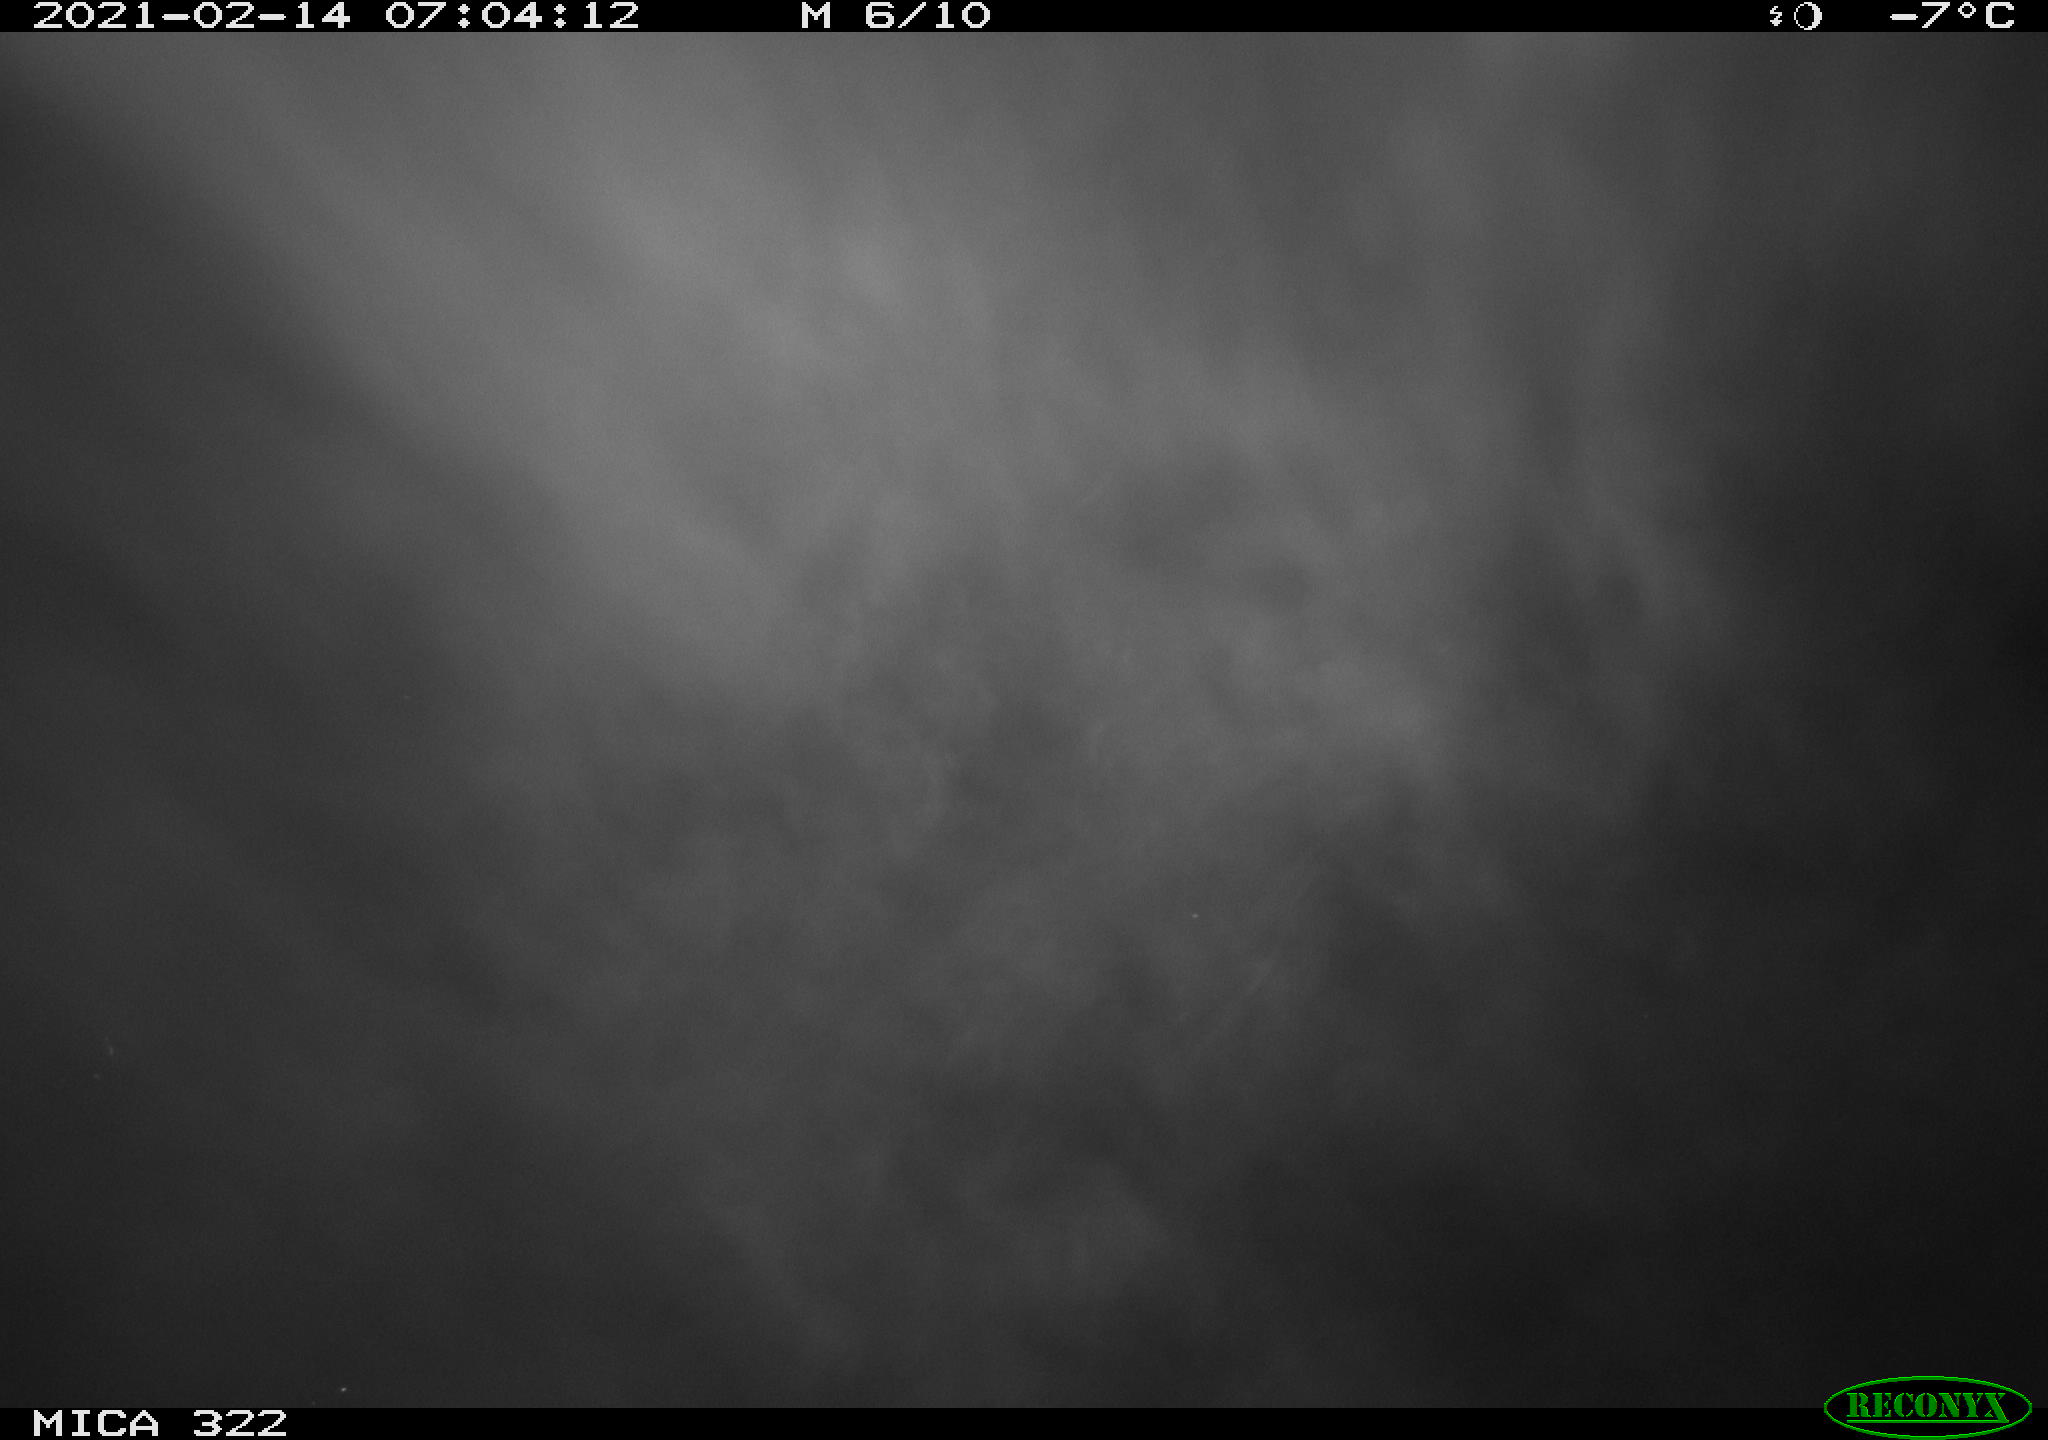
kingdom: Animalia
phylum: Chordata
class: Mammalia
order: Rodentia
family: Muridae
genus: Rattus
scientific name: Rattus norvegicus
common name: Brown rat
